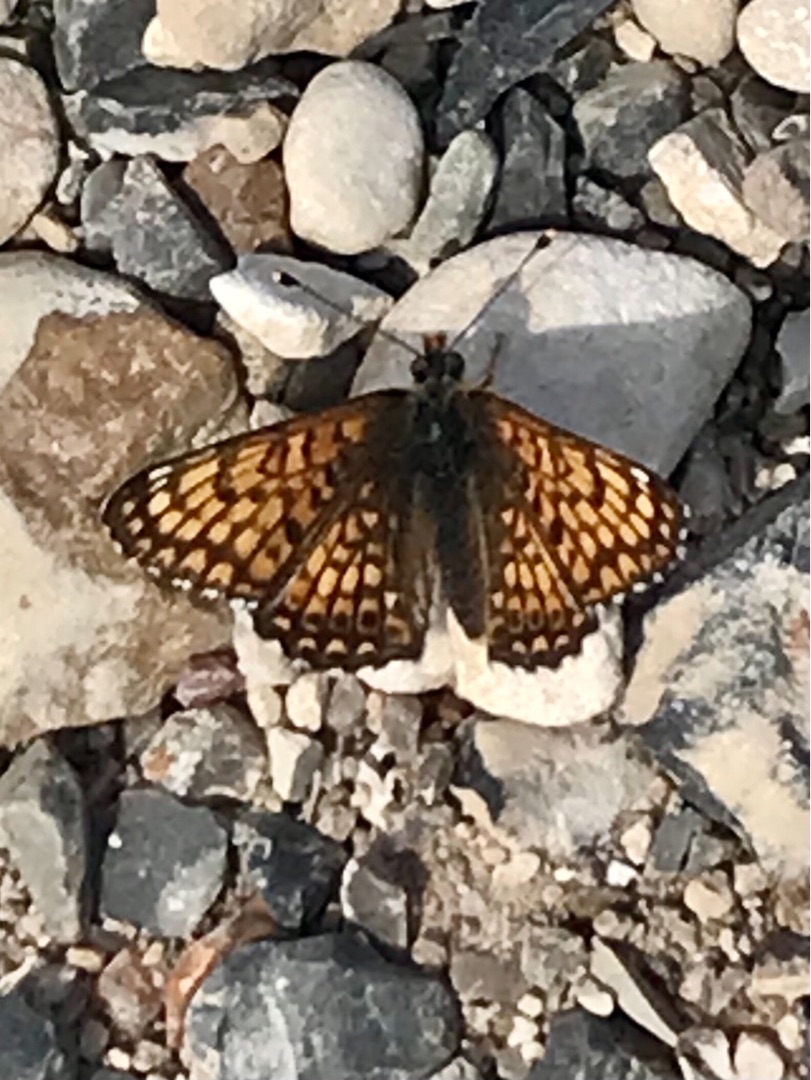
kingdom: Animalia
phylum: Arthropoda
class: Insecta
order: Lepidoptera
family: Nymphalidae
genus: Melitaea
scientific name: Melitaea cinxia
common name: Okkergul pletvinge
